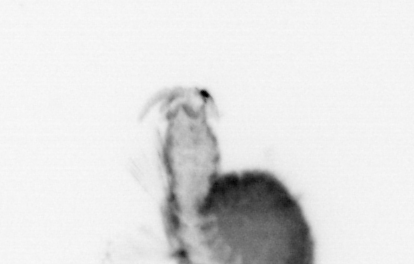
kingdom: Animalia
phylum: Annelida
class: Polychaeta
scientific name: Polychaeta
